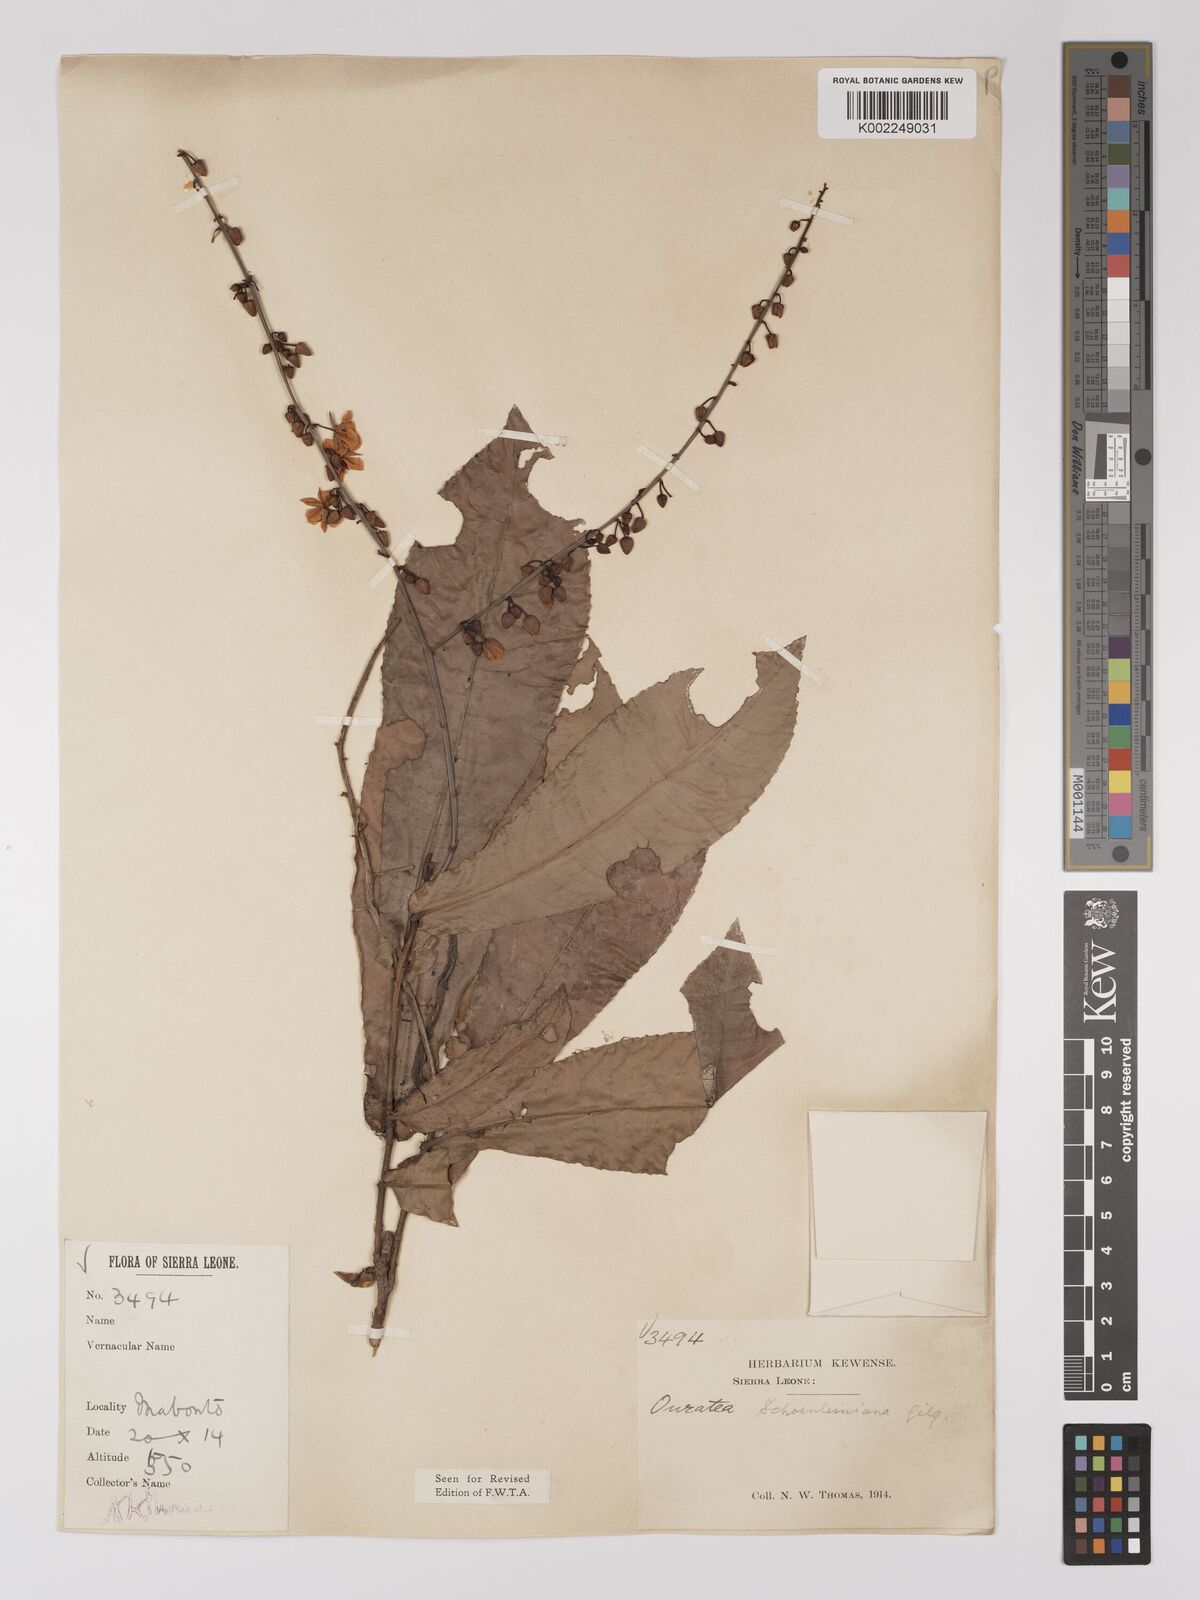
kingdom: Plantae
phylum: Tracheophyta
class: Magnoliopsida
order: Malpighiales
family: Ochnaceae
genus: Campylospermum
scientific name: Campylospermum schoenleinianum
